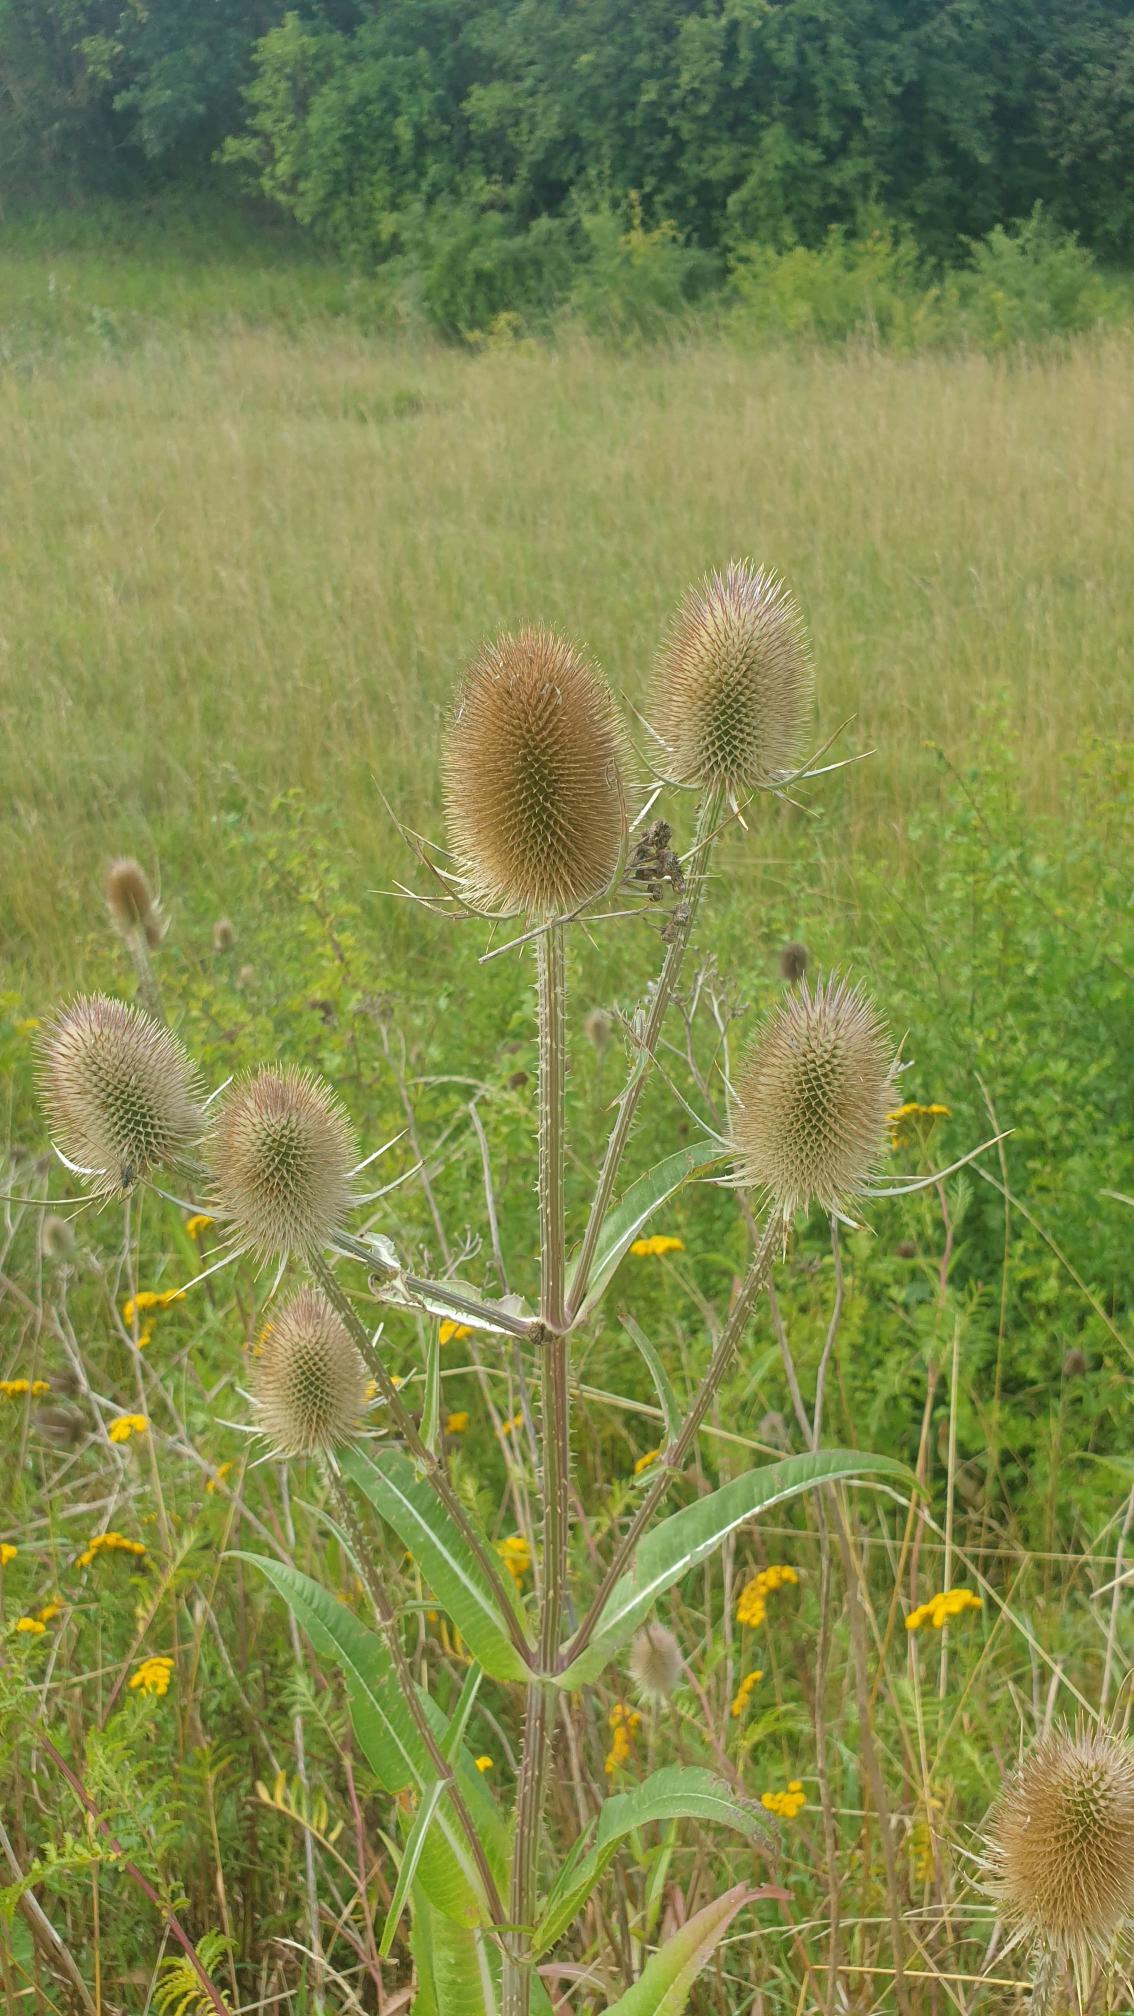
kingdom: Plantae
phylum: Tracheophyta
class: Magnoliopsida
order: Dipsacales
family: Caprifoliaceae
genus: Dipsacus
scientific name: Dipsacus fullonum
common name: Gærde-kartebolle
